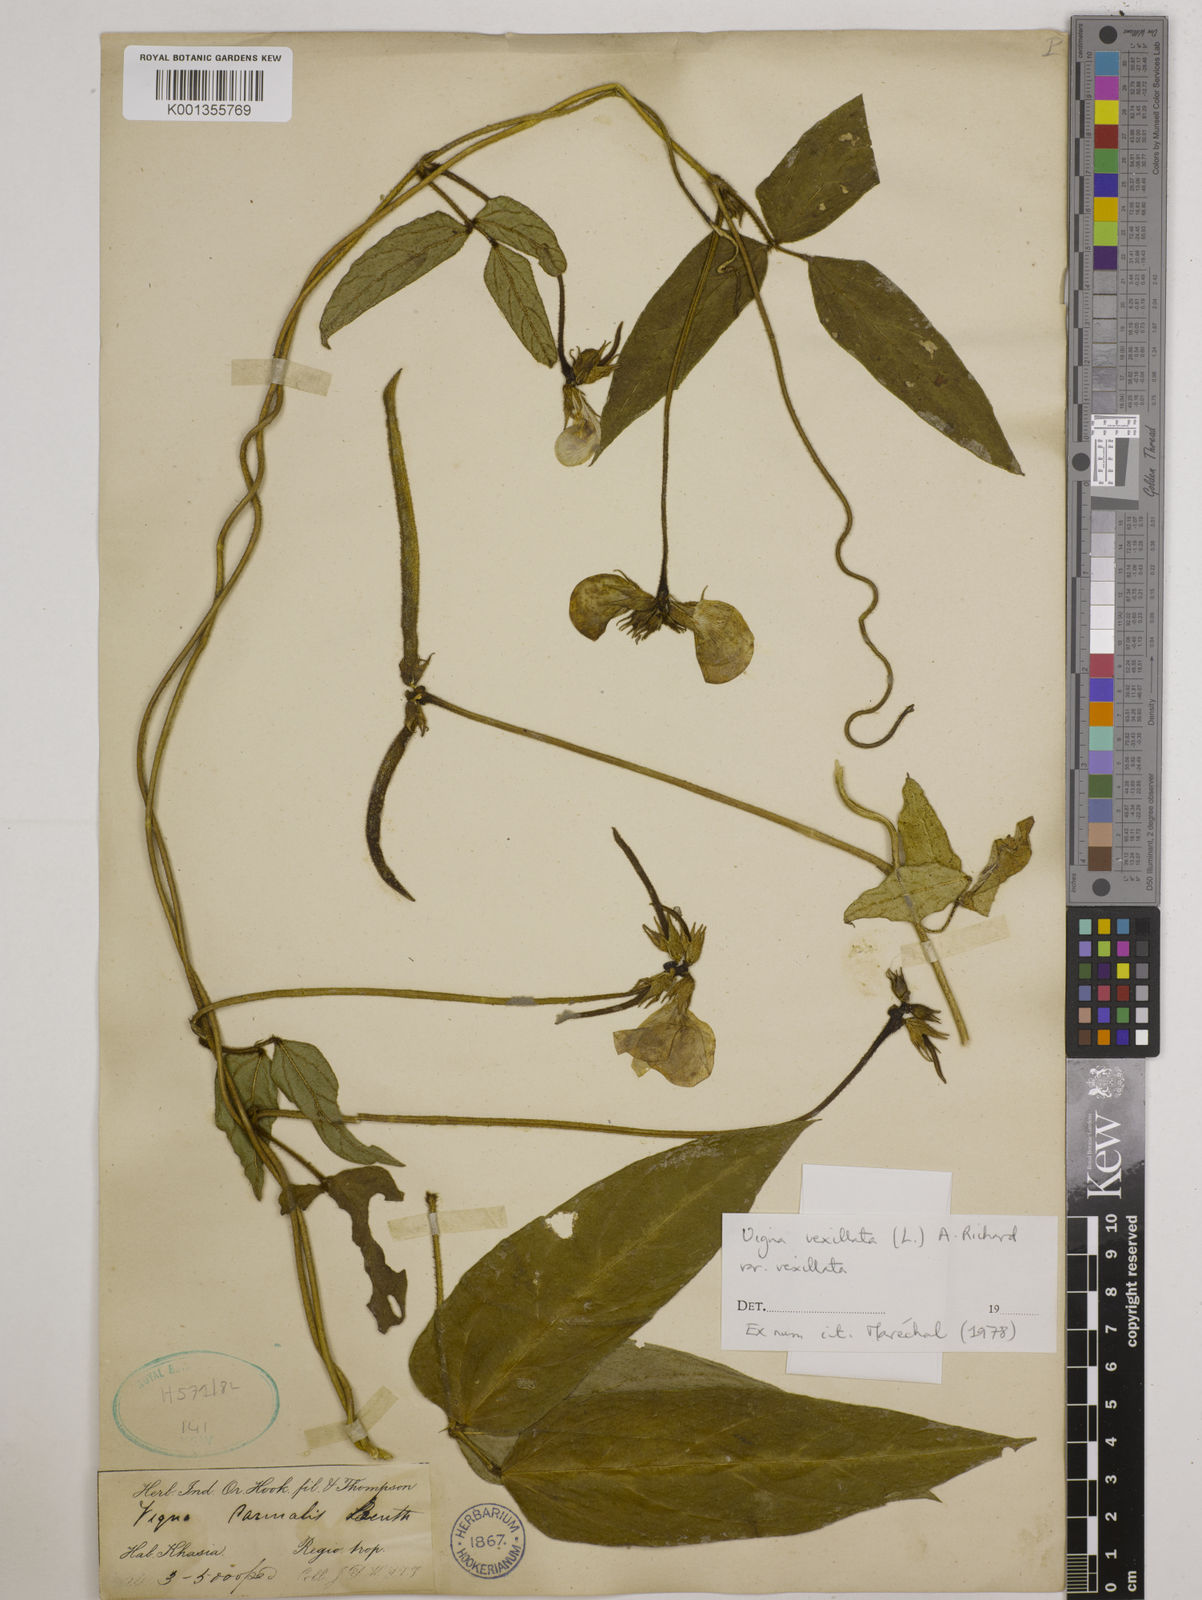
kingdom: Plantae
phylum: Tracheophyta
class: Magnoliopsida
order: Fabales
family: Fabaceae
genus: Vigna
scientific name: Vigna vexillata
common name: Zombi pea
